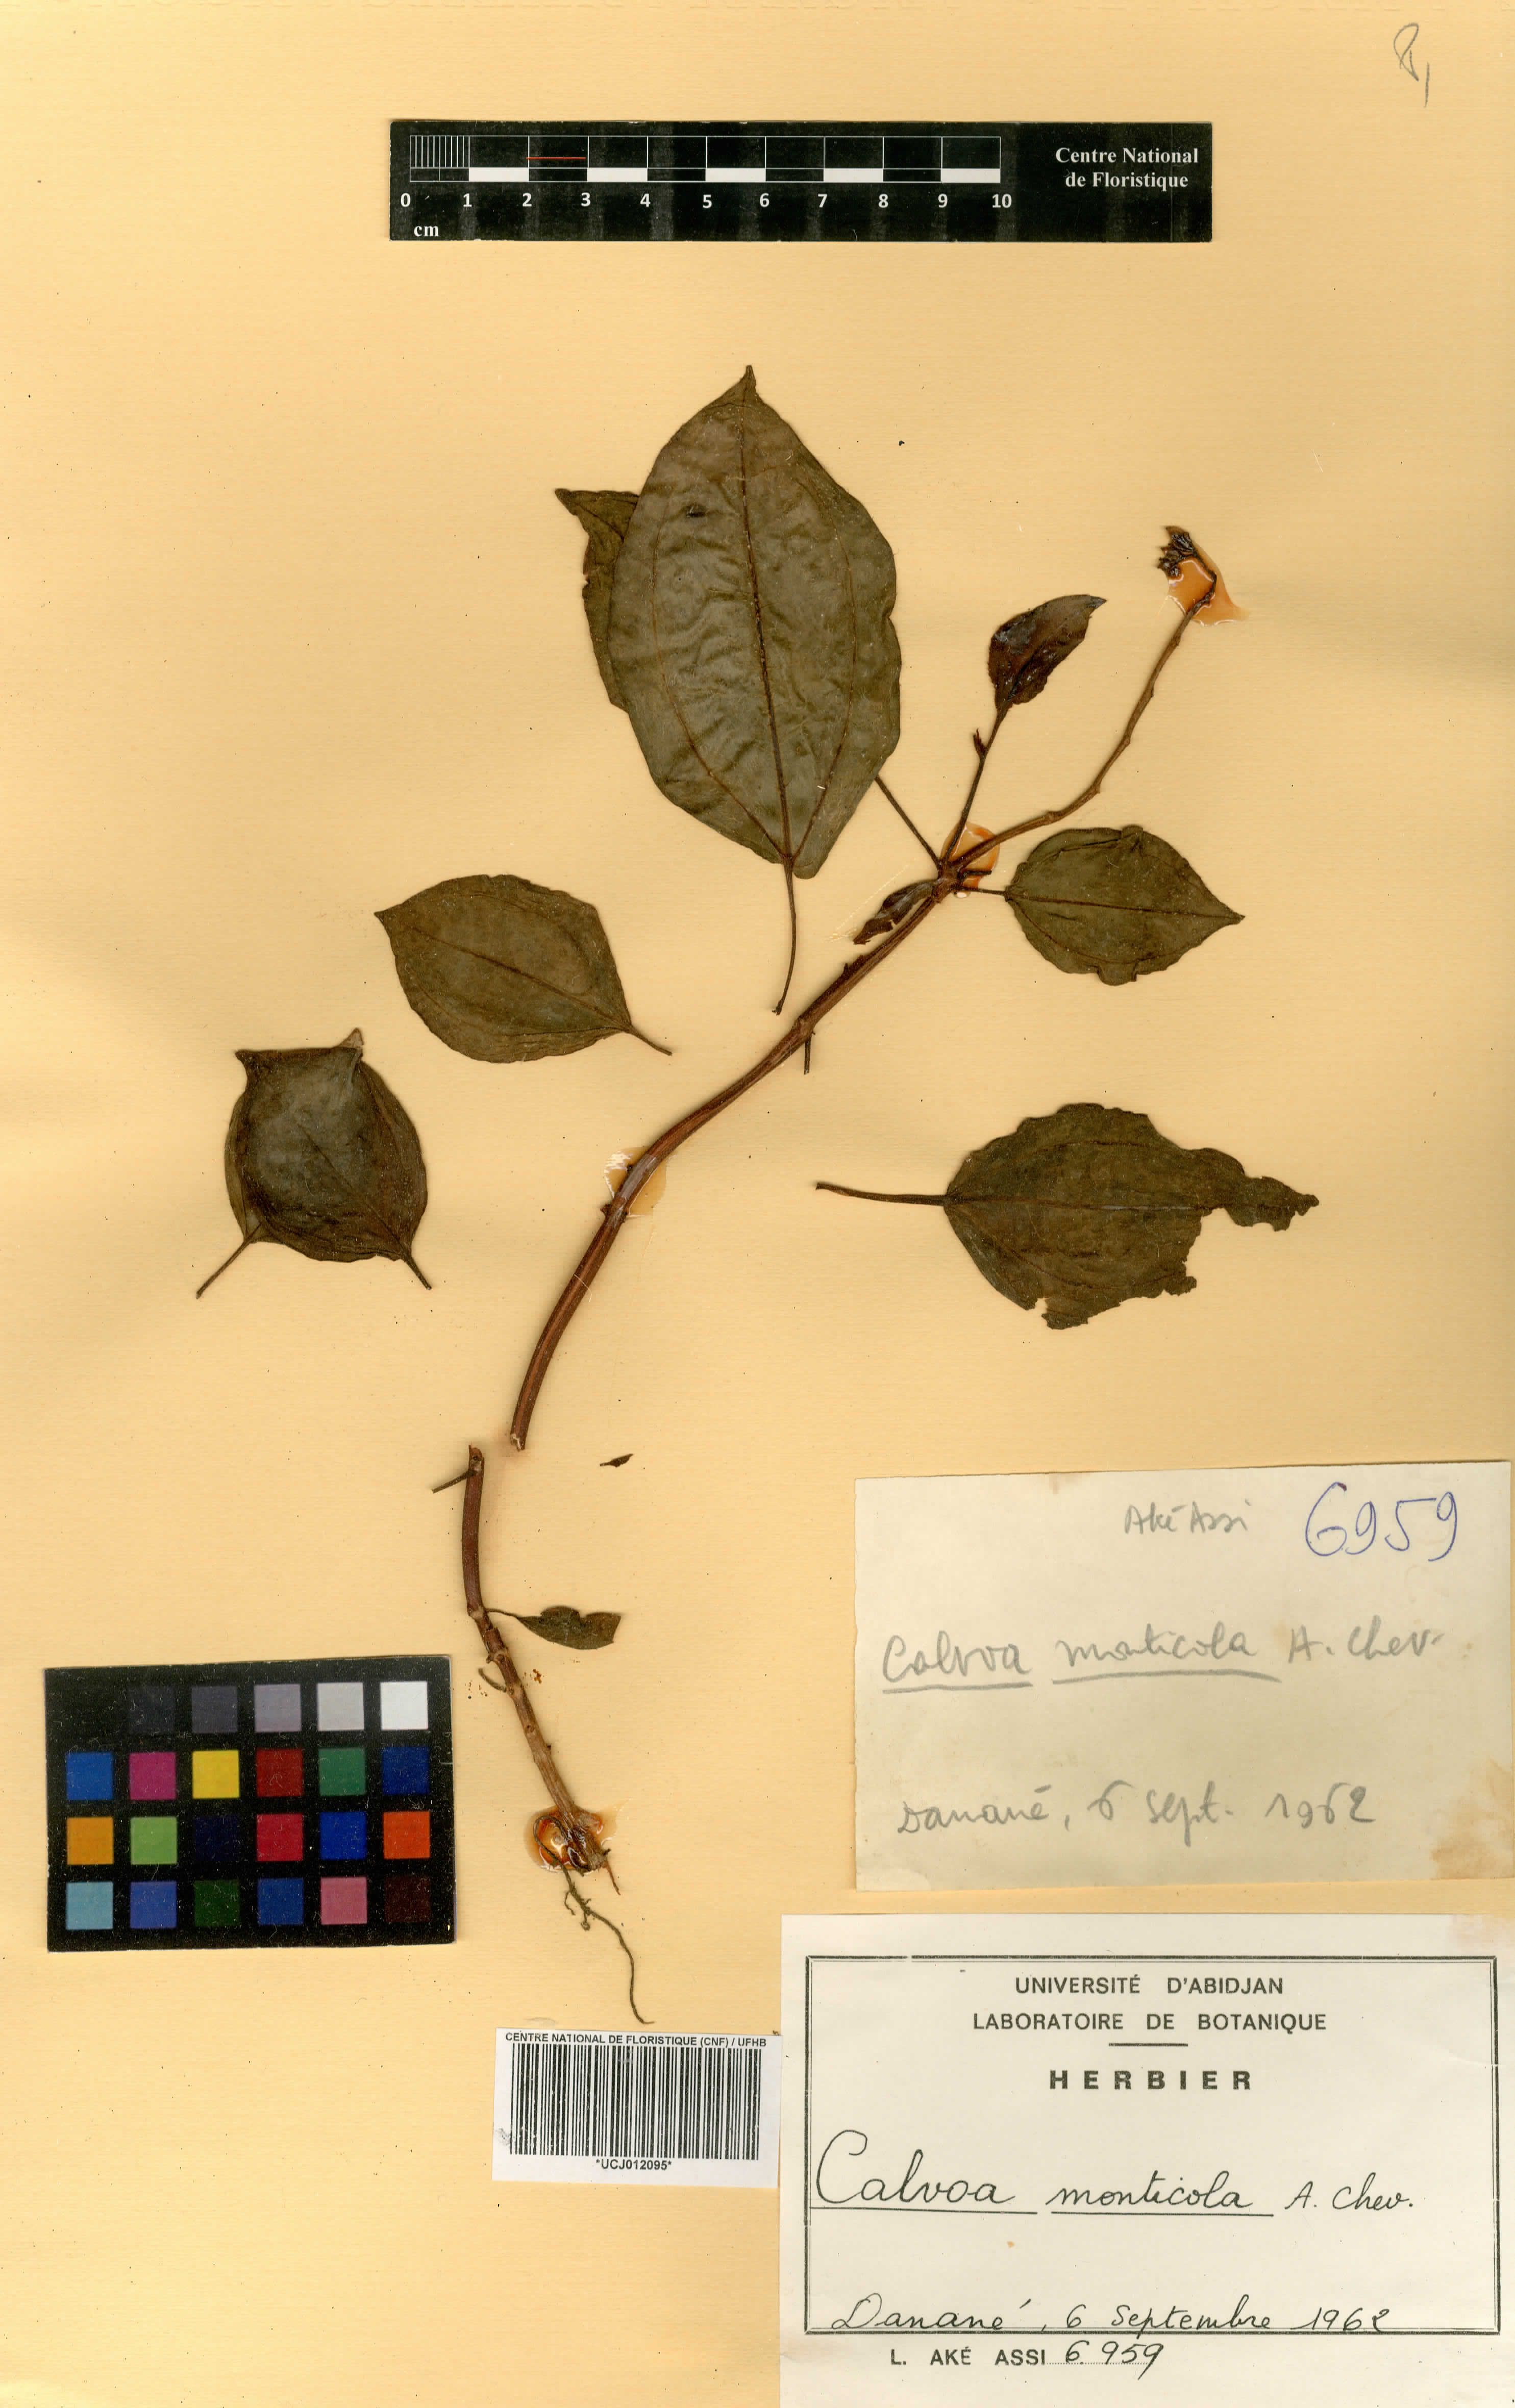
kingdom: Plantae
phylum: Tracheophyta
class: Magnoliopsida
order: Myrtales
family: Melastomataceae
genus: Calvoa
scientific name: Calvoa monticola
